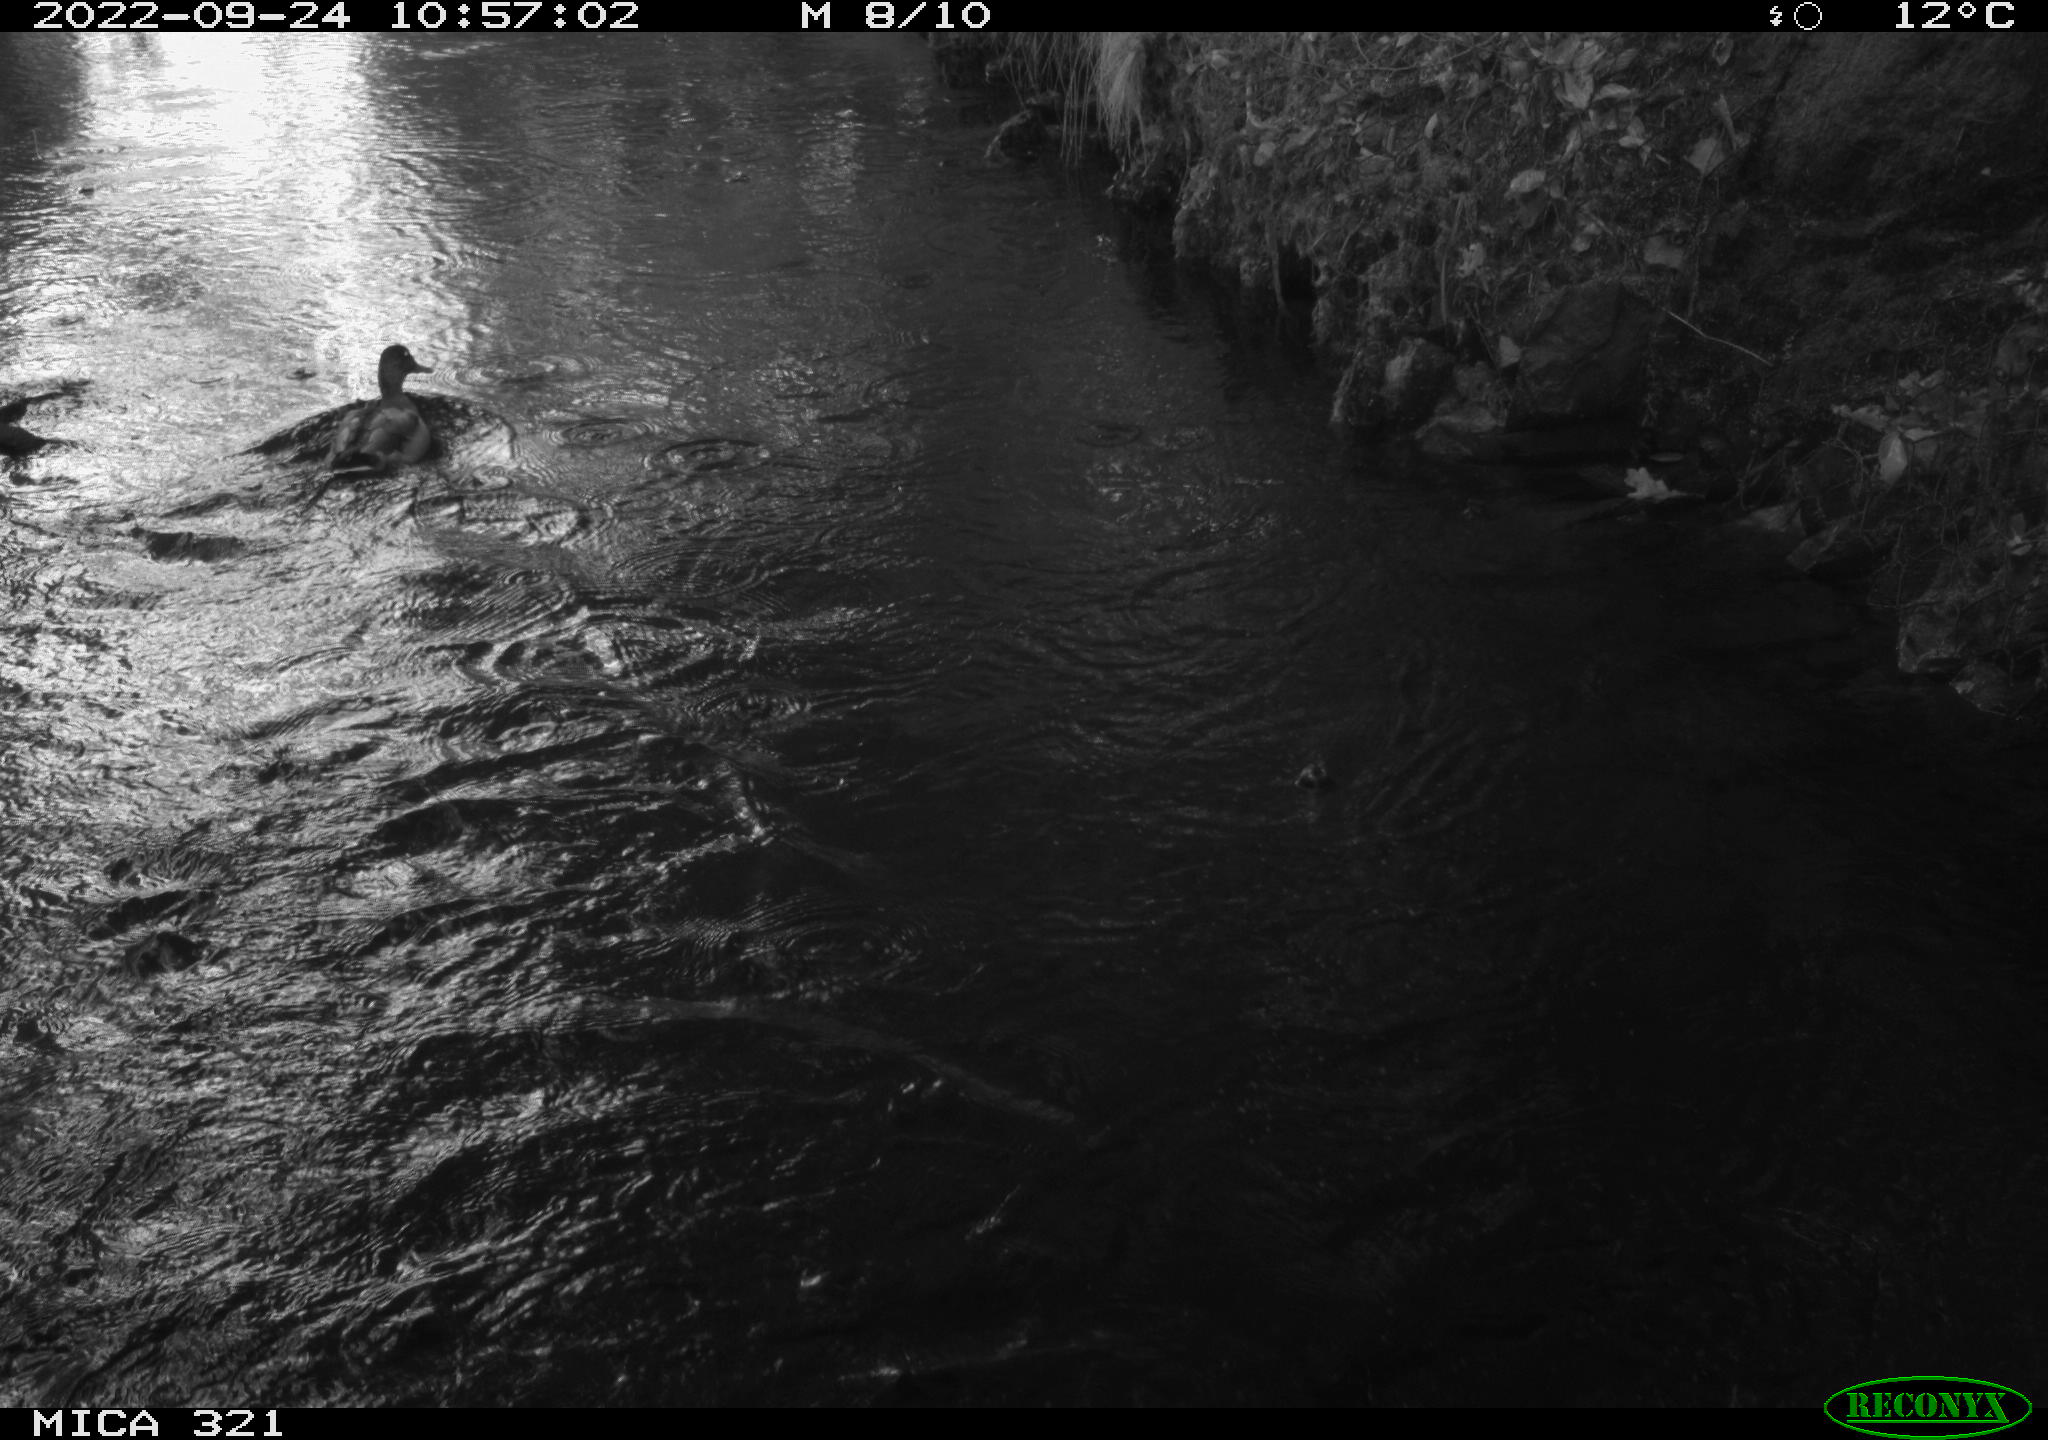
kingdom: Animalia
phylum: Chordata
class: Aves
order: Anseriformes
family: Anatidae
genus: Anas
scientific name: Anas
